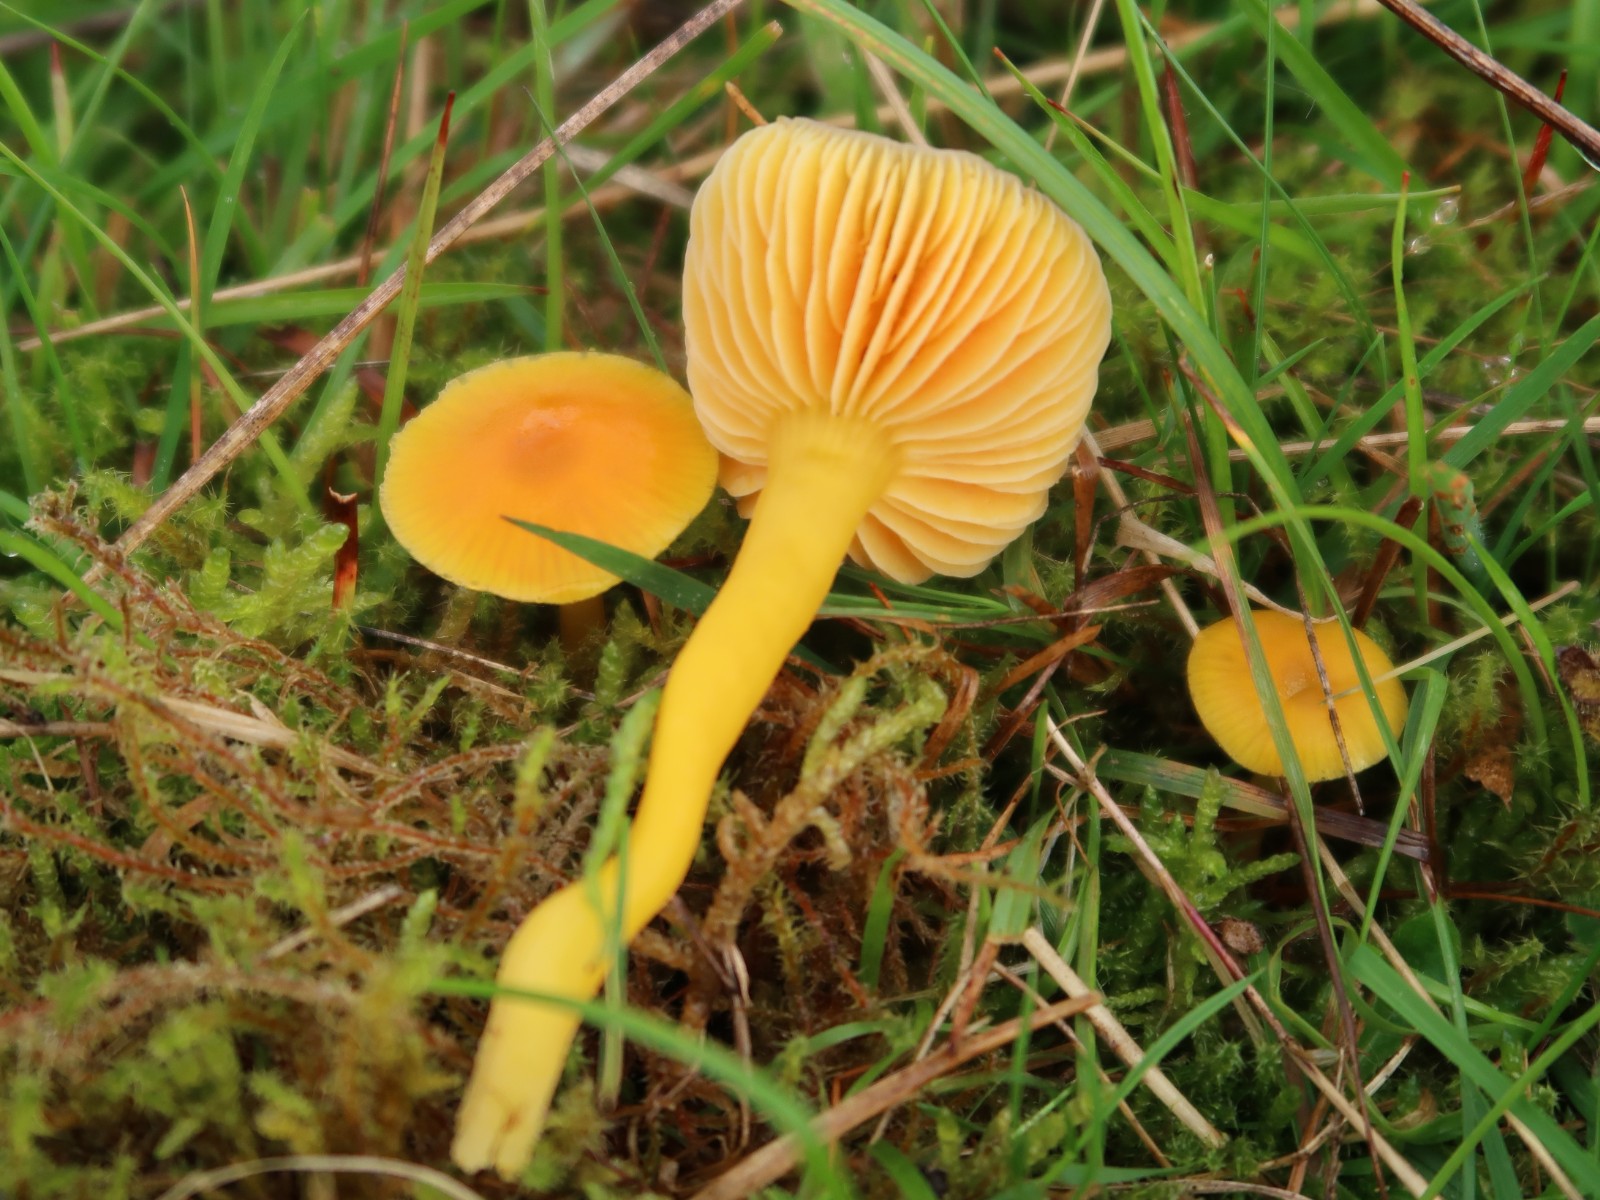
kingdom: Fungi
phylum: Basidiomycota
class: Agaricomycetes
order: Agaricales
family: Hygrophoraceae
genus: Hygrocybe
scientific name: Hygrocybe chlorophana
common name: gul vokshat
